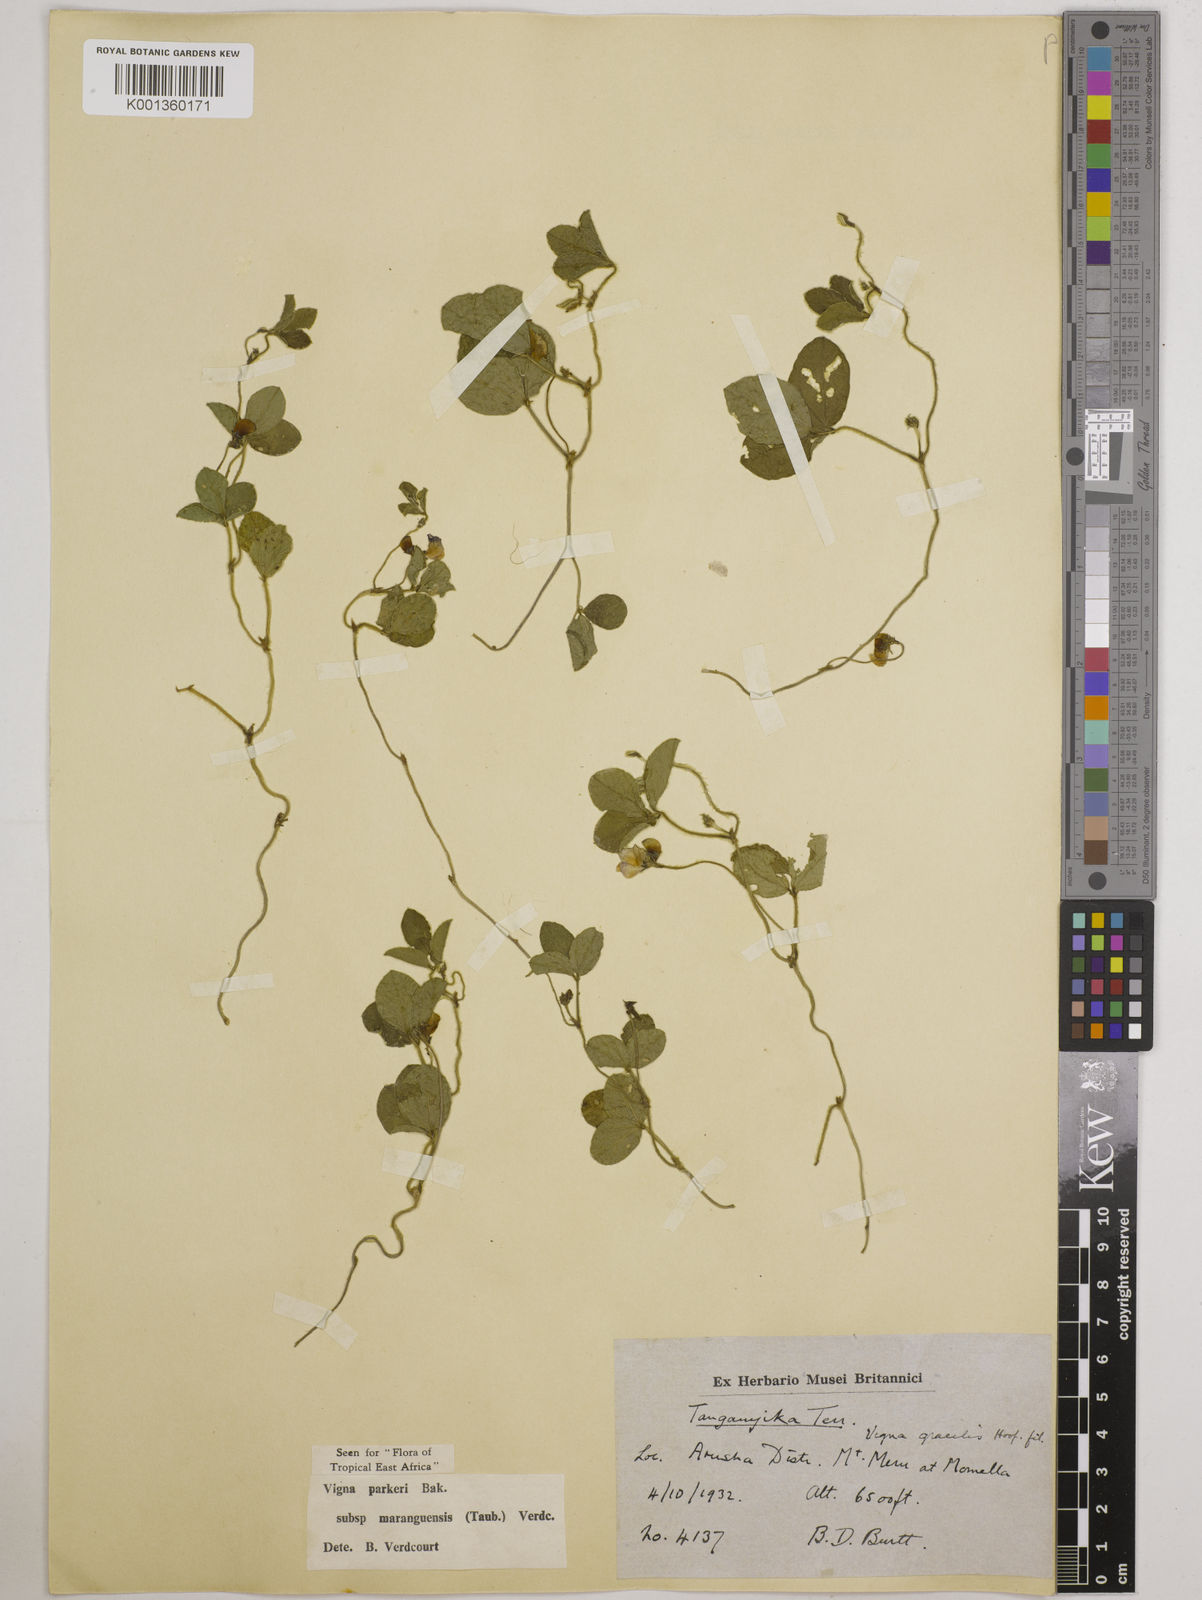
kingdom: Plantae
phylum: Tracheophyta
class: Magnoliopsida
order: Fabales
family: Fabaceae
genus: Vigna
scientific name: Vigna
